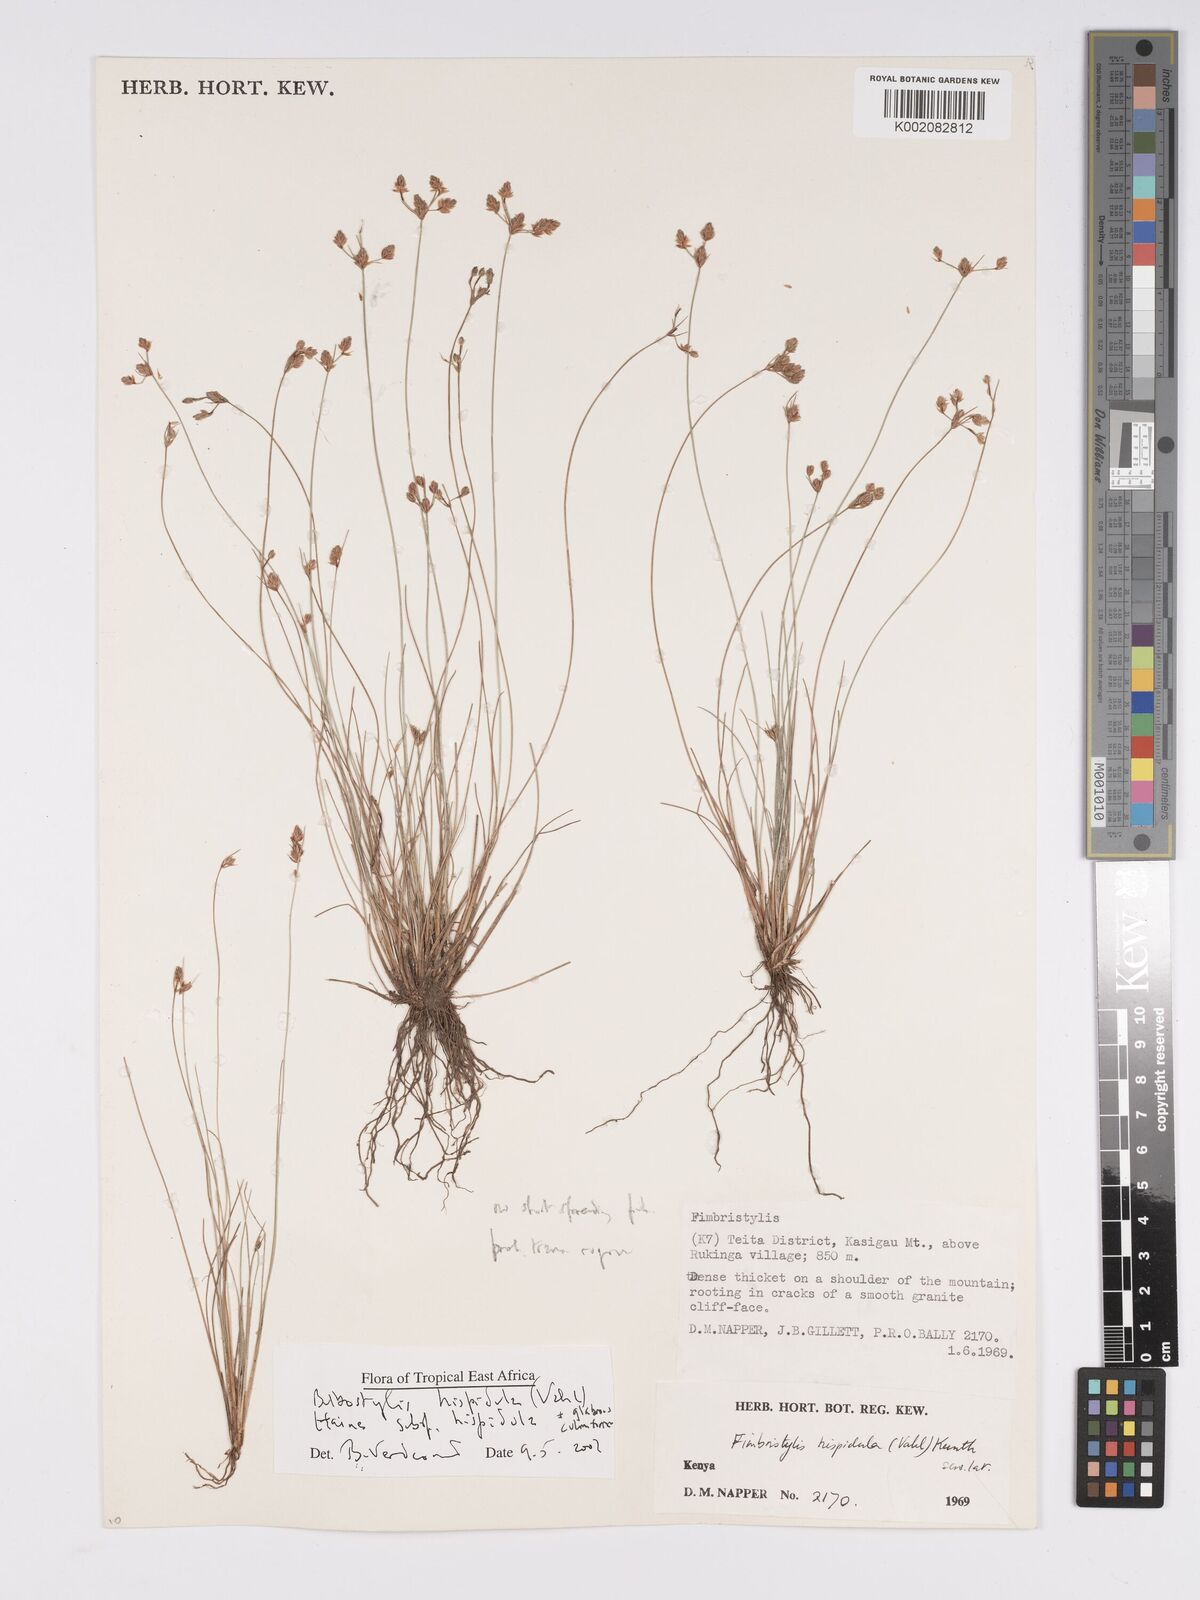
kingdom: Plantae
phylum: Tracheophyta
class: Liliopsida
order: Poales
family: Cyperaceae
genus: Bulbostylis
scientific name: Bulbostylis hispidula
